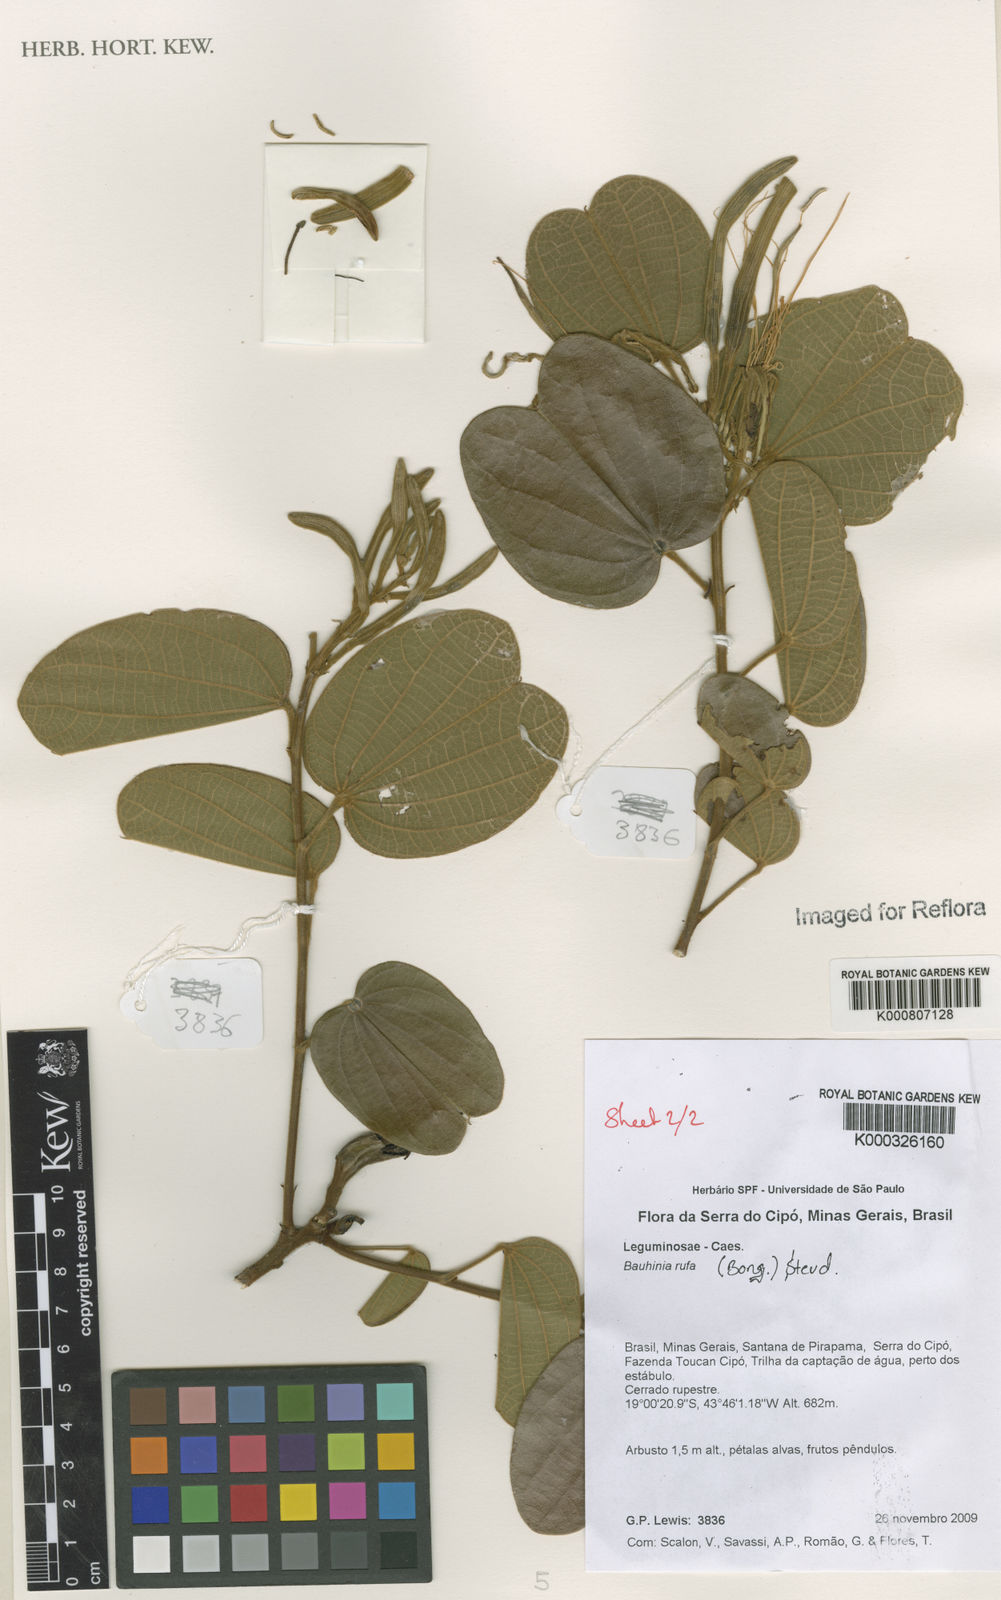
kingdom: Plantae
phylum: Tracheophyta
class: Magnoliopsida
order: Fabales
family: Fabaceae
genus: Bauhinia
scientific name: Bauhinia rufa
